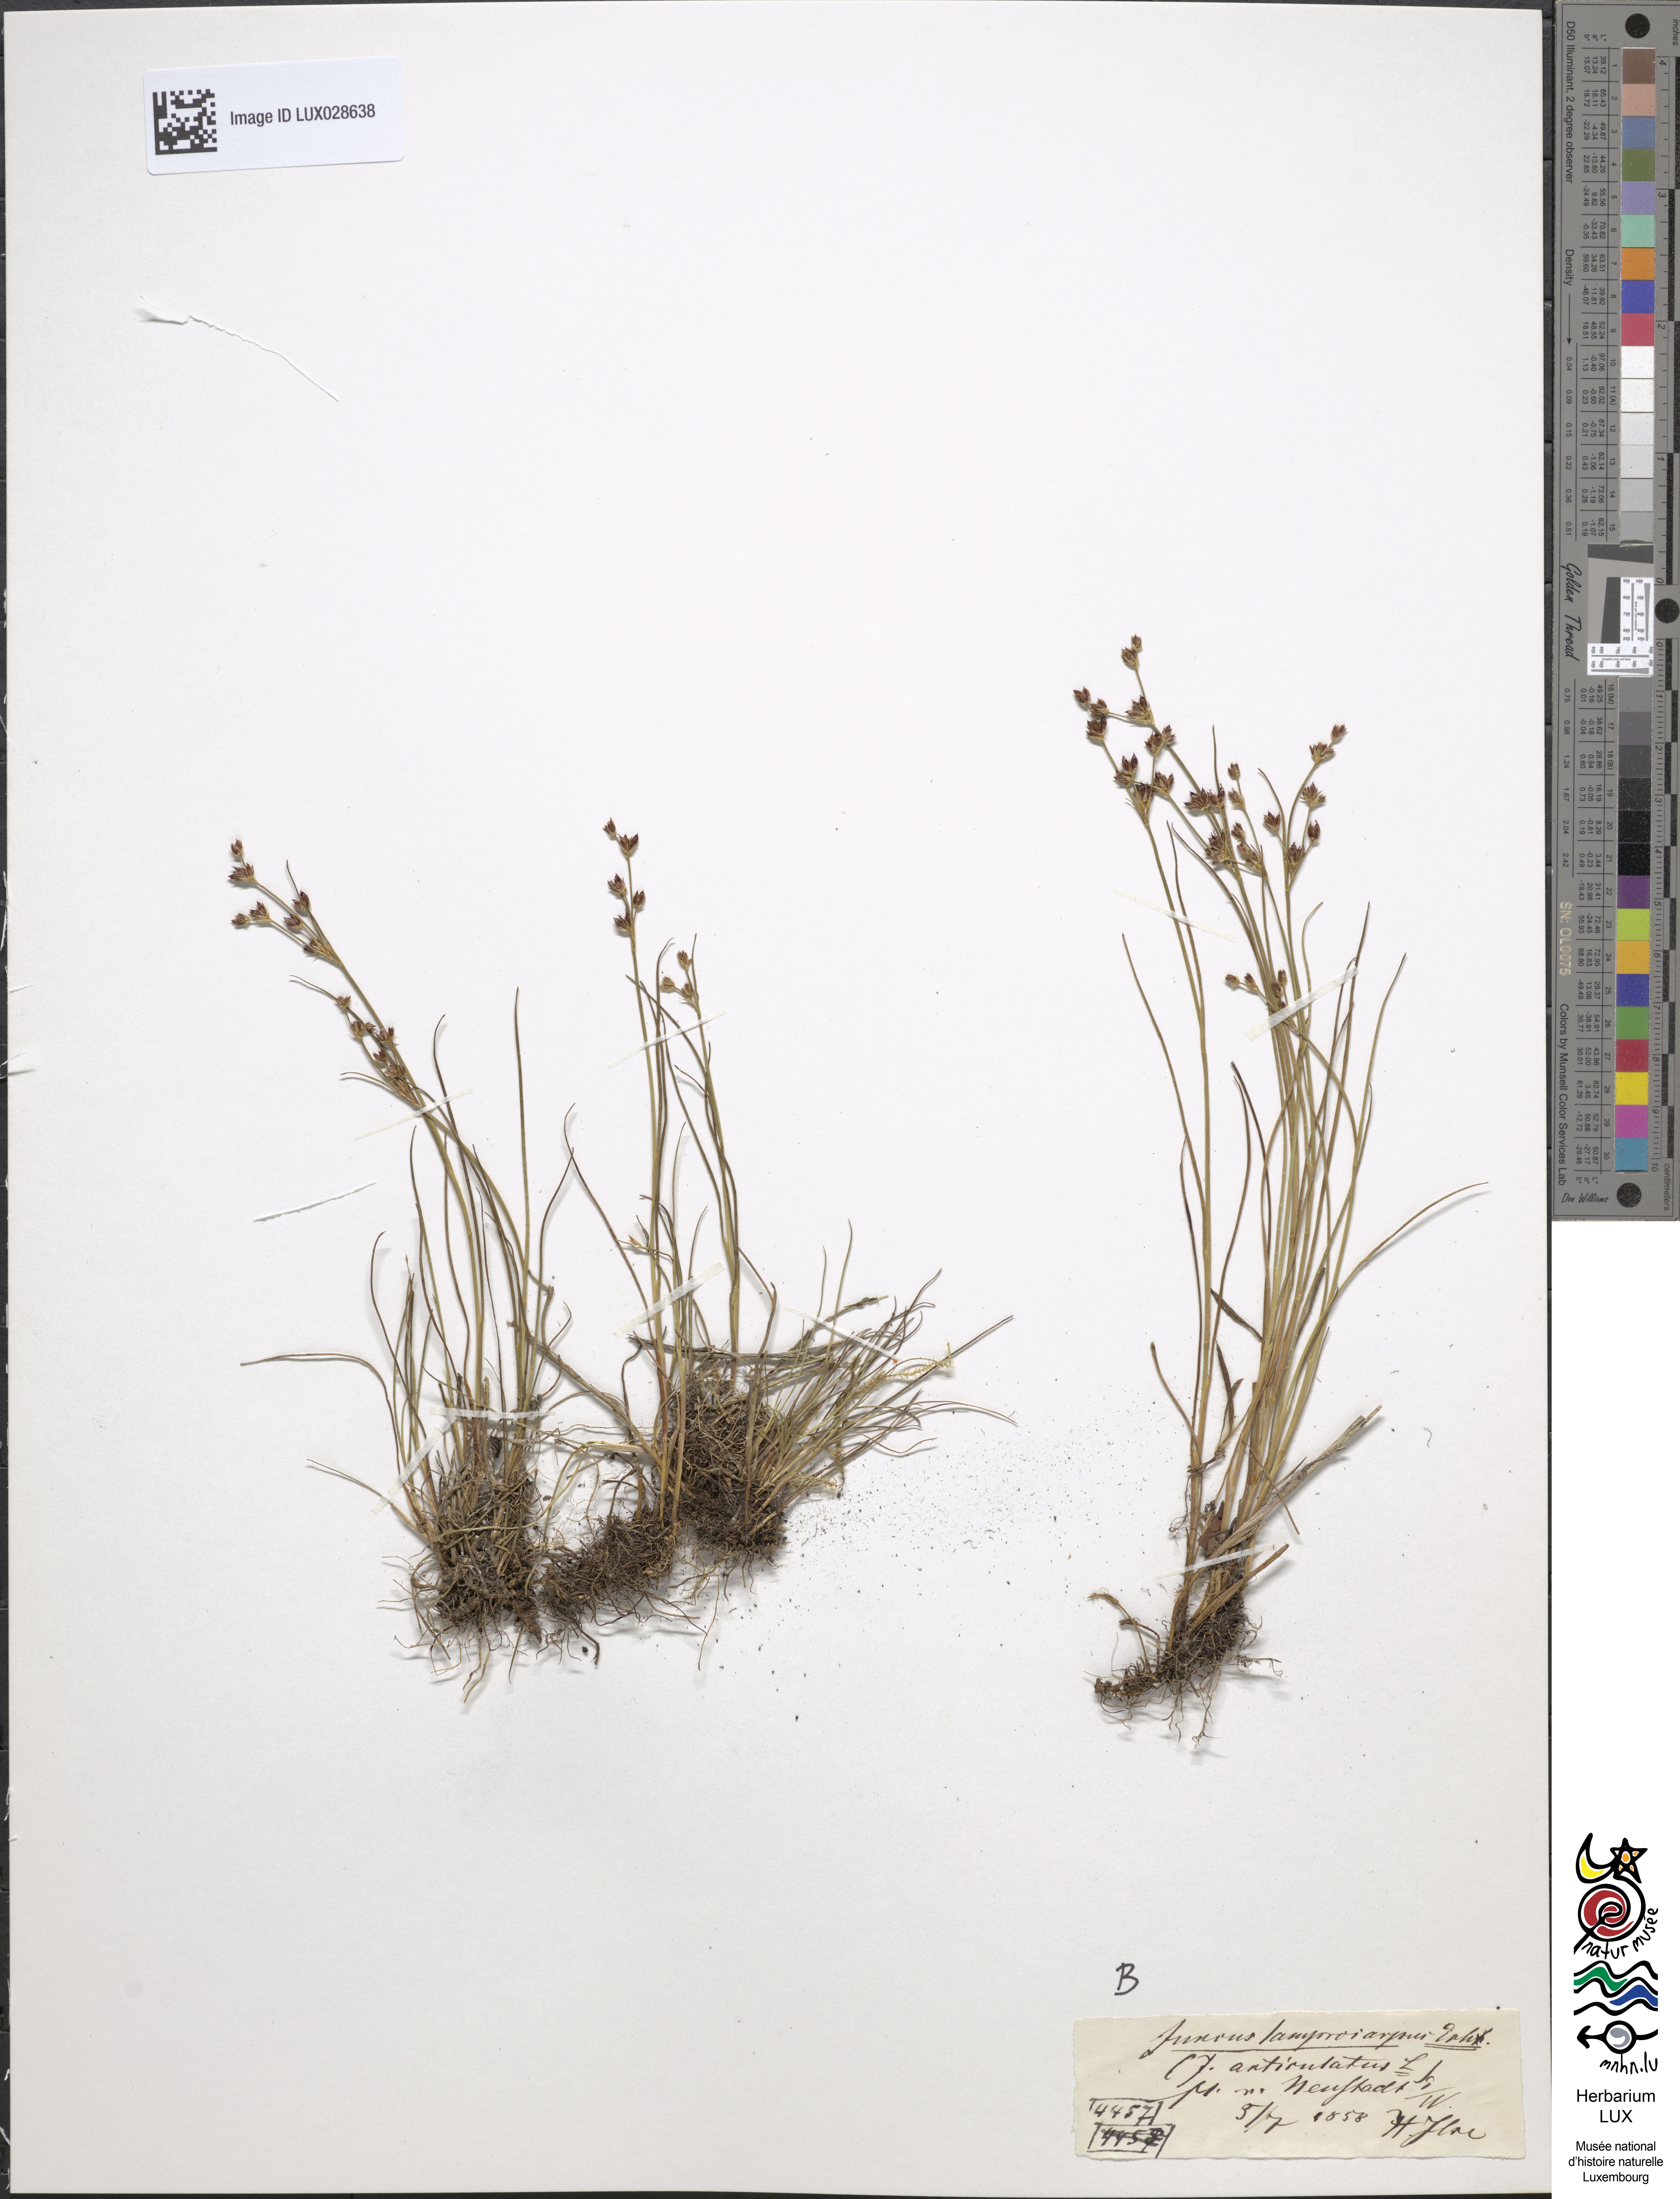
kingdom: Plantae
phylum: Tracheophyta
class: Liliopsida
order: Poales
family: Juncaceae
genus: Juncus
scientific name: Juncus articulatus
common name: Jointed rush
